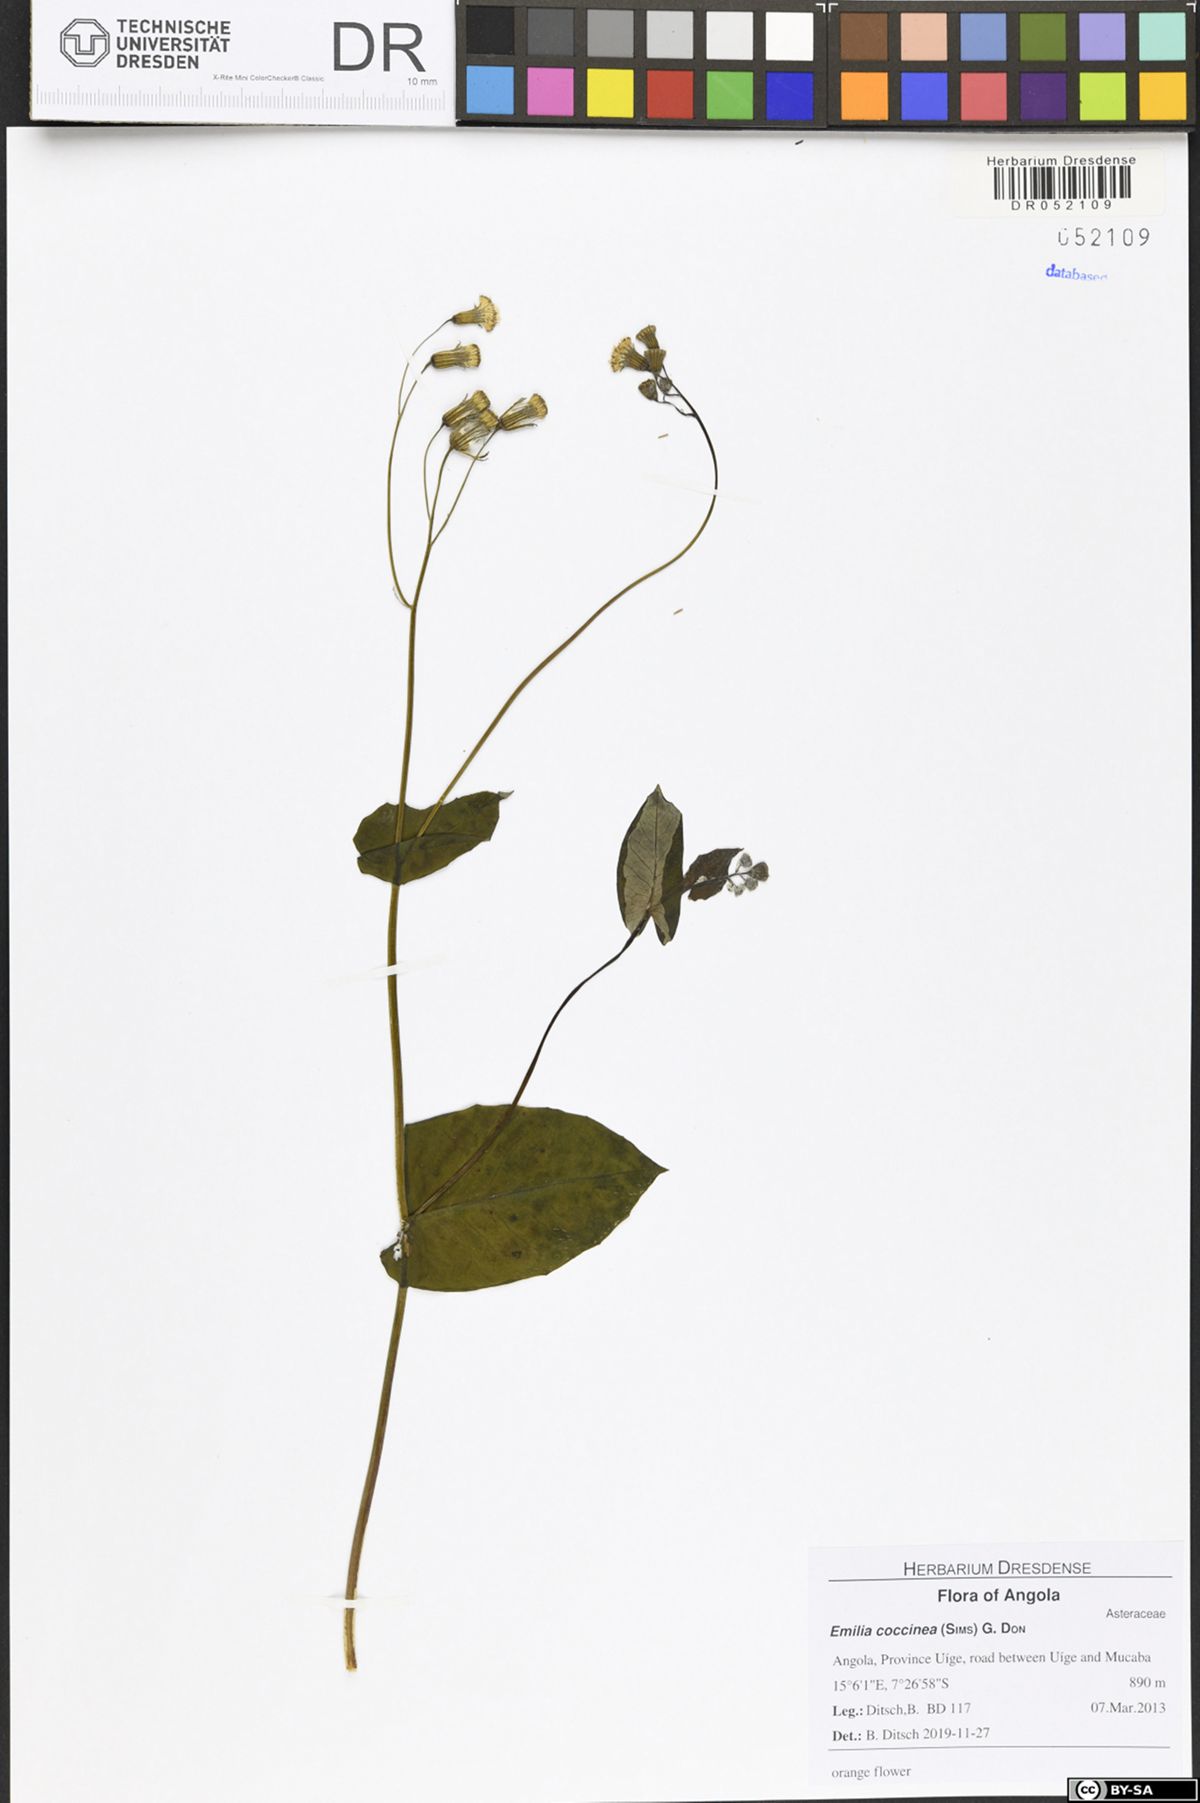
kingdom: Plantae
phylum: Tracheophyta
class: Magnoliopsida
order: Asterales
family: Asteraceae
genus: Emilia
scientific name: Emilia coccinea
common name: Scarlet tasselflower
